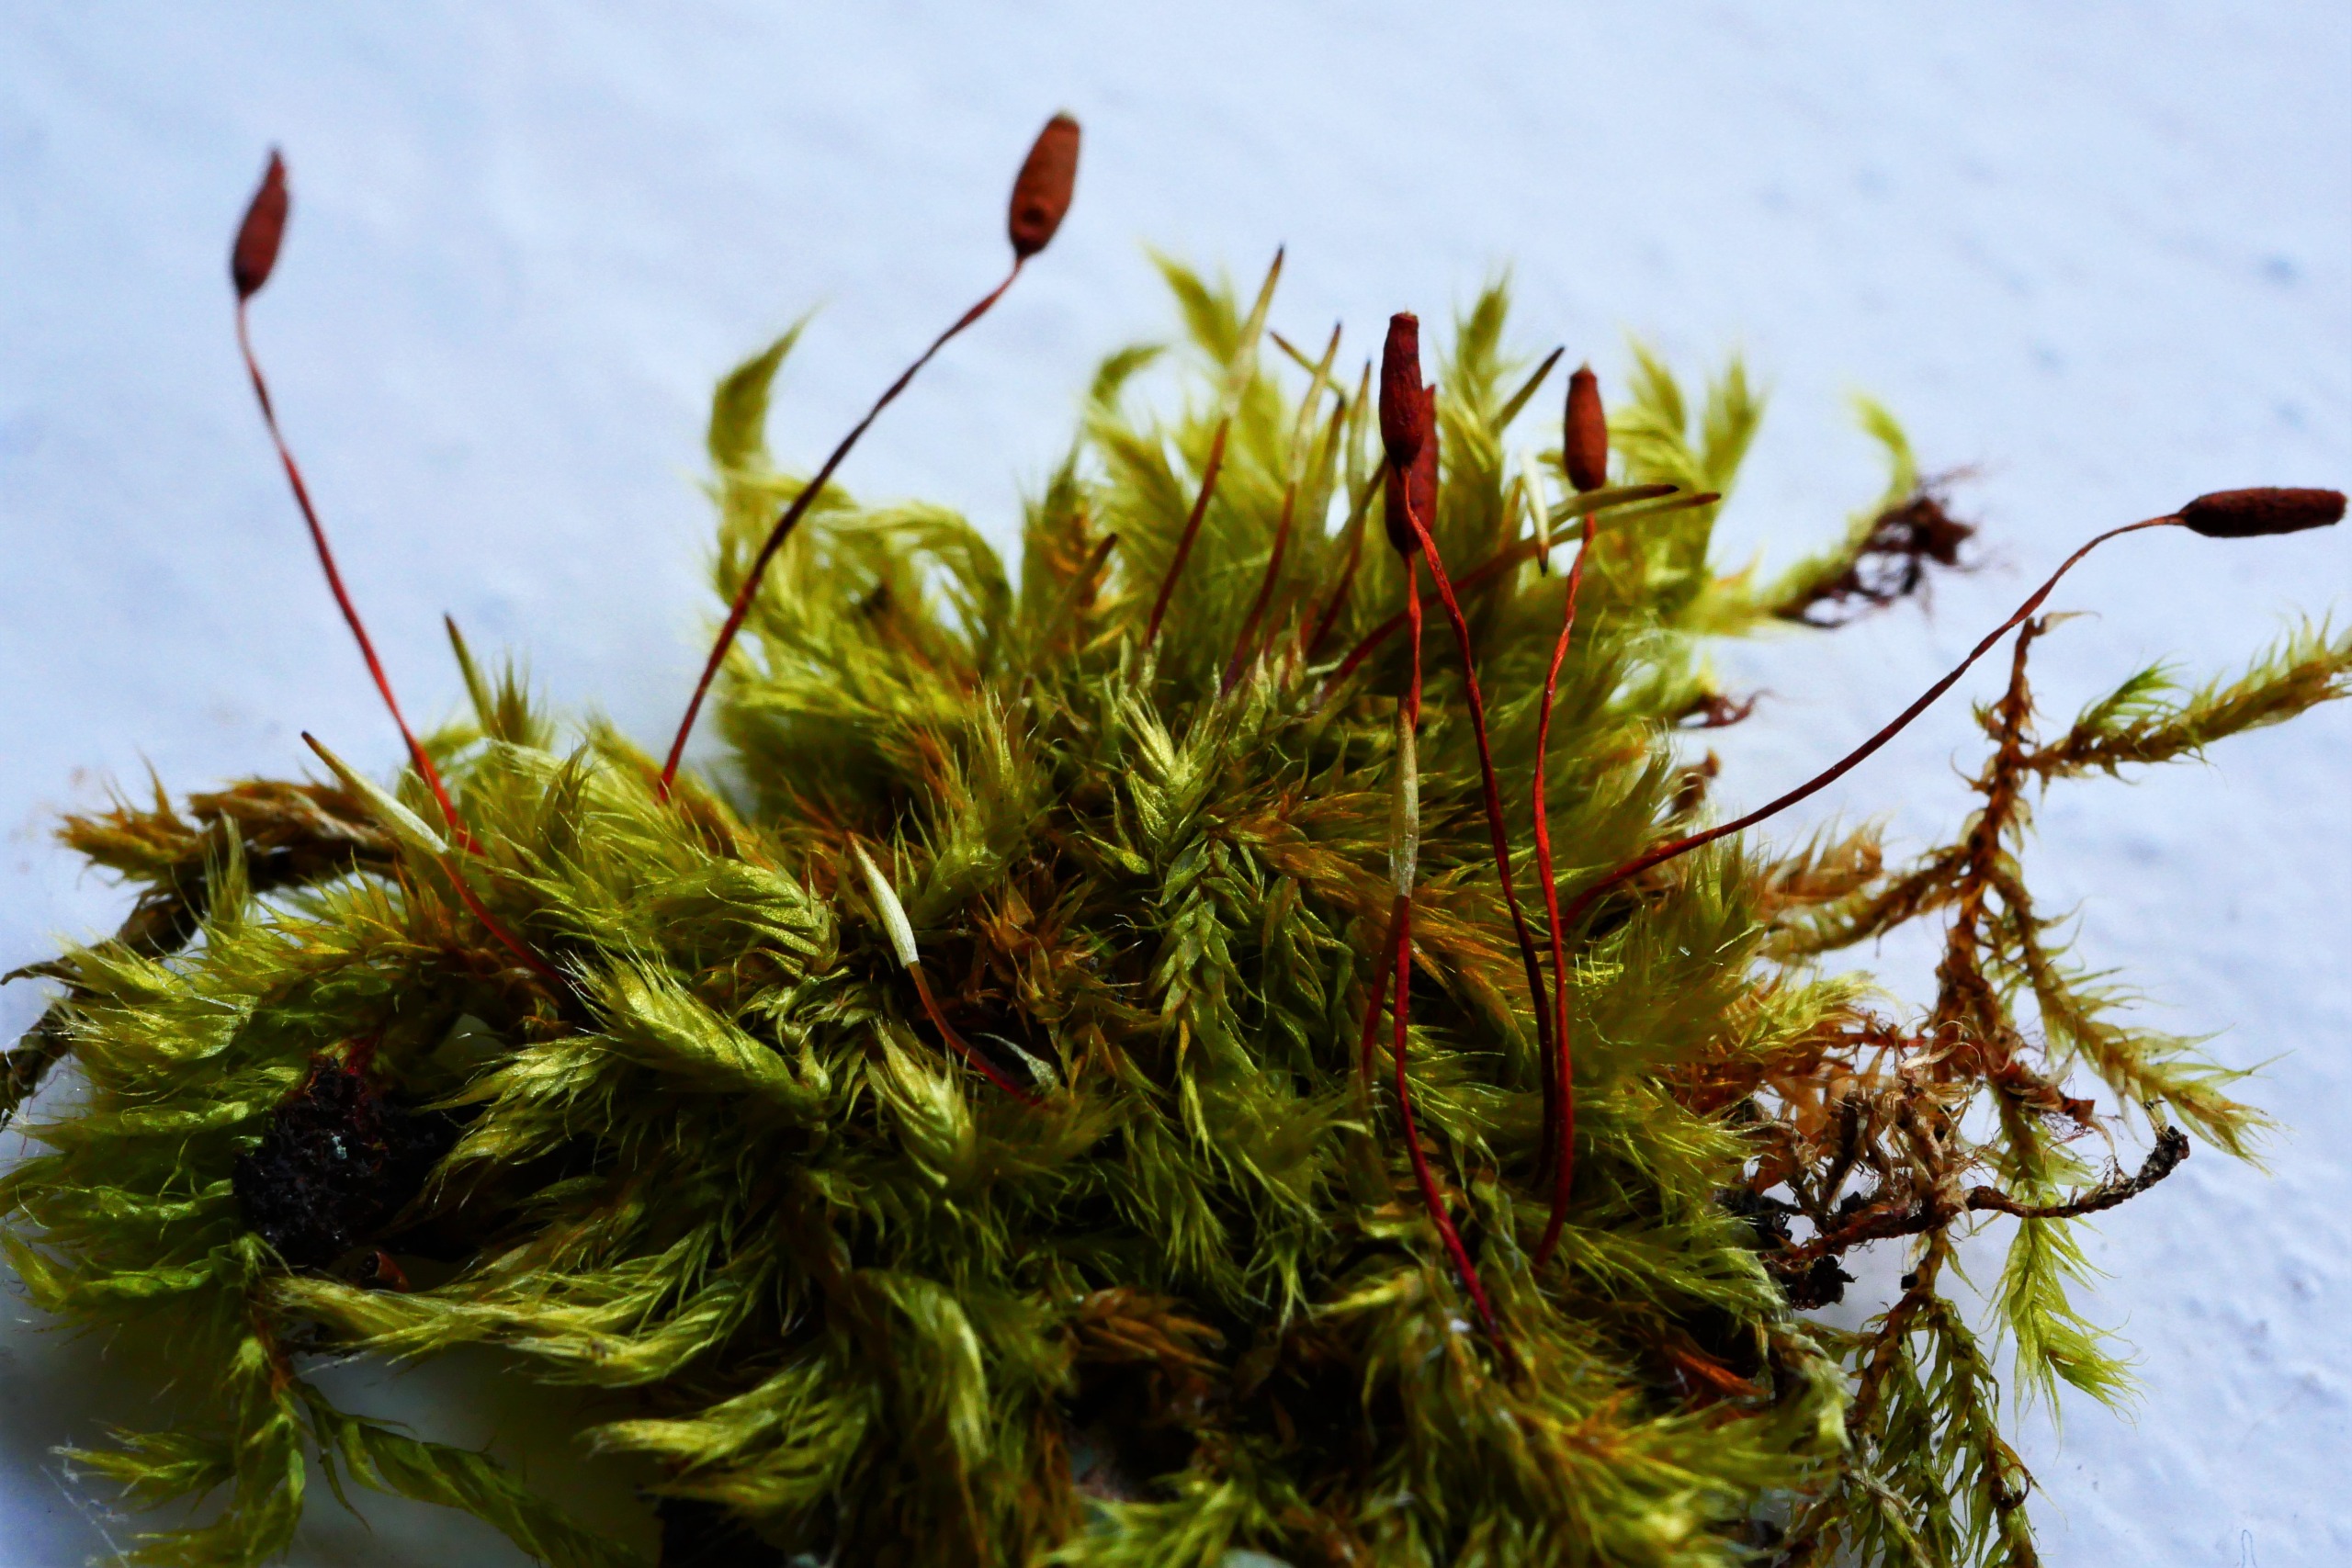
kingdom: Plantae
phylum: Bryophyta
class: Bryopsida
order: Hypnales
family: Pylaisiaceae
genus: Pylaisia
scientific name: Pylaisia polyantha
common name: Mangefrugtet aspemos
